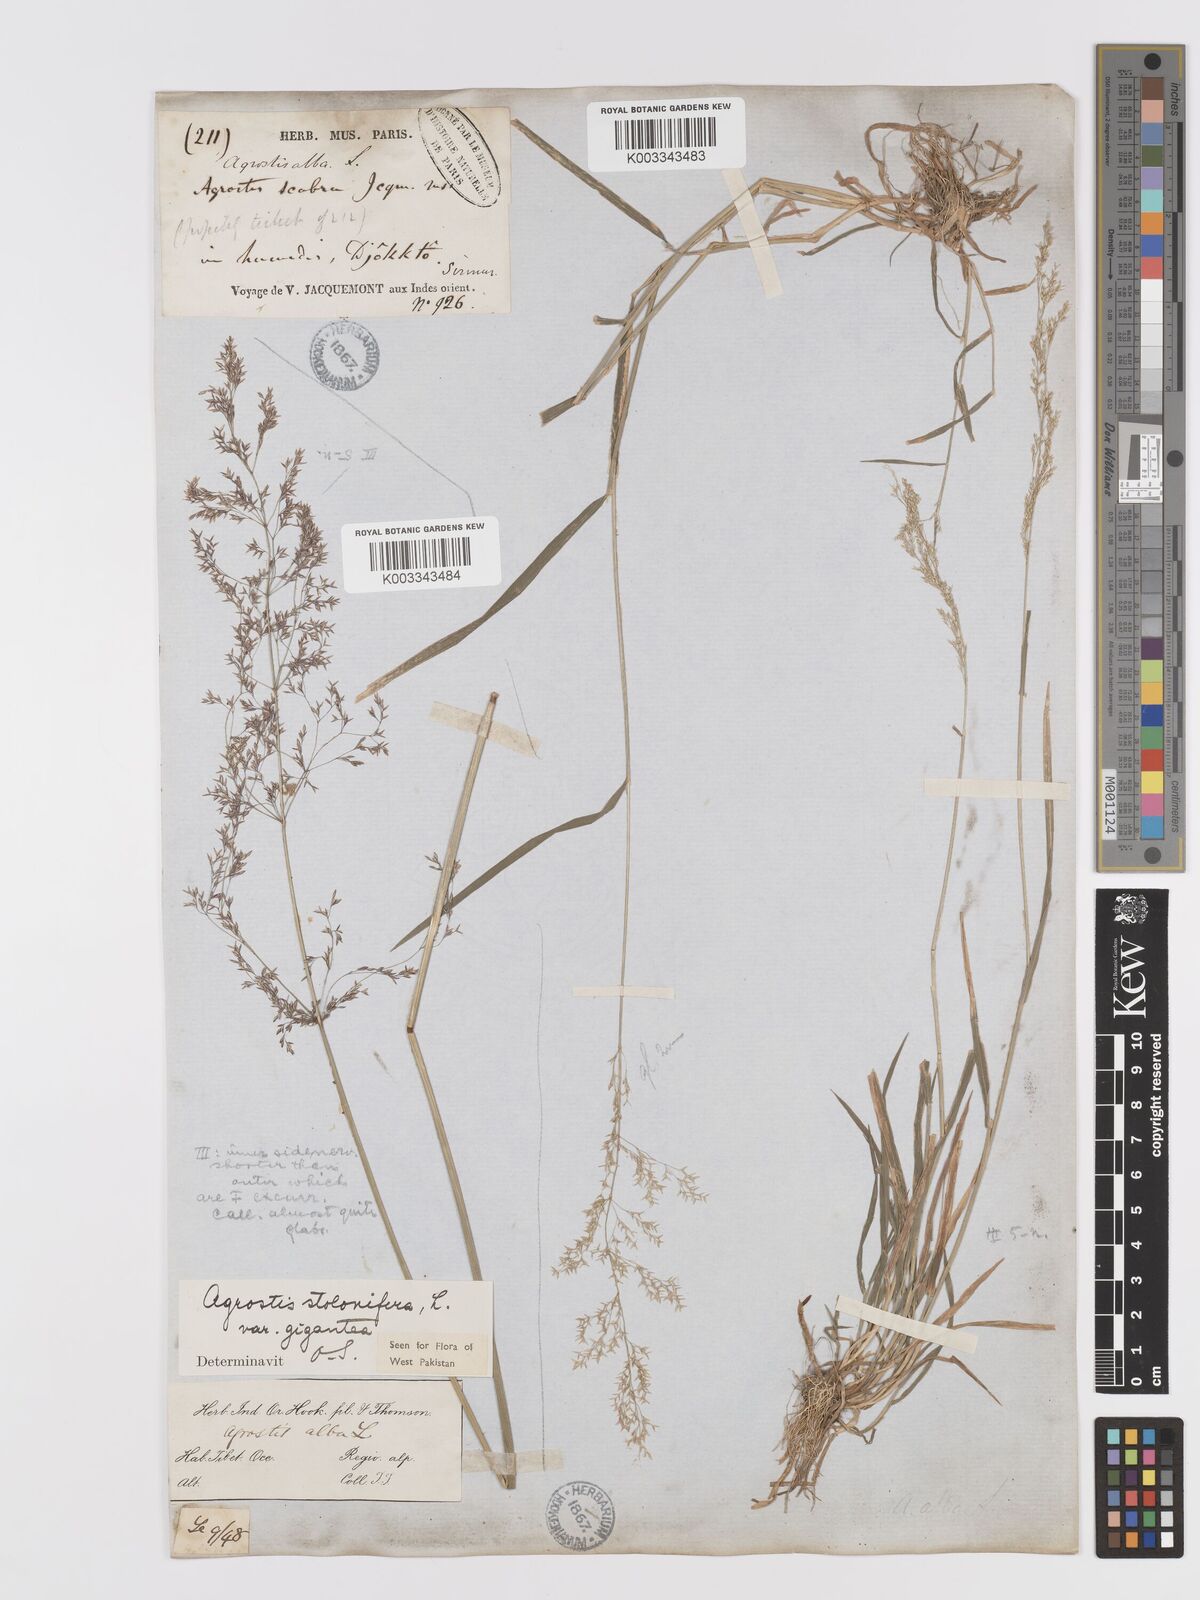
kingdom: Plantae
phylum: Tracheophyta
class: Liliopsida
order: Poales
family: Poaceae
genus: Agrostis
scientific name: Agrostis gigantea
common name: Black bent
